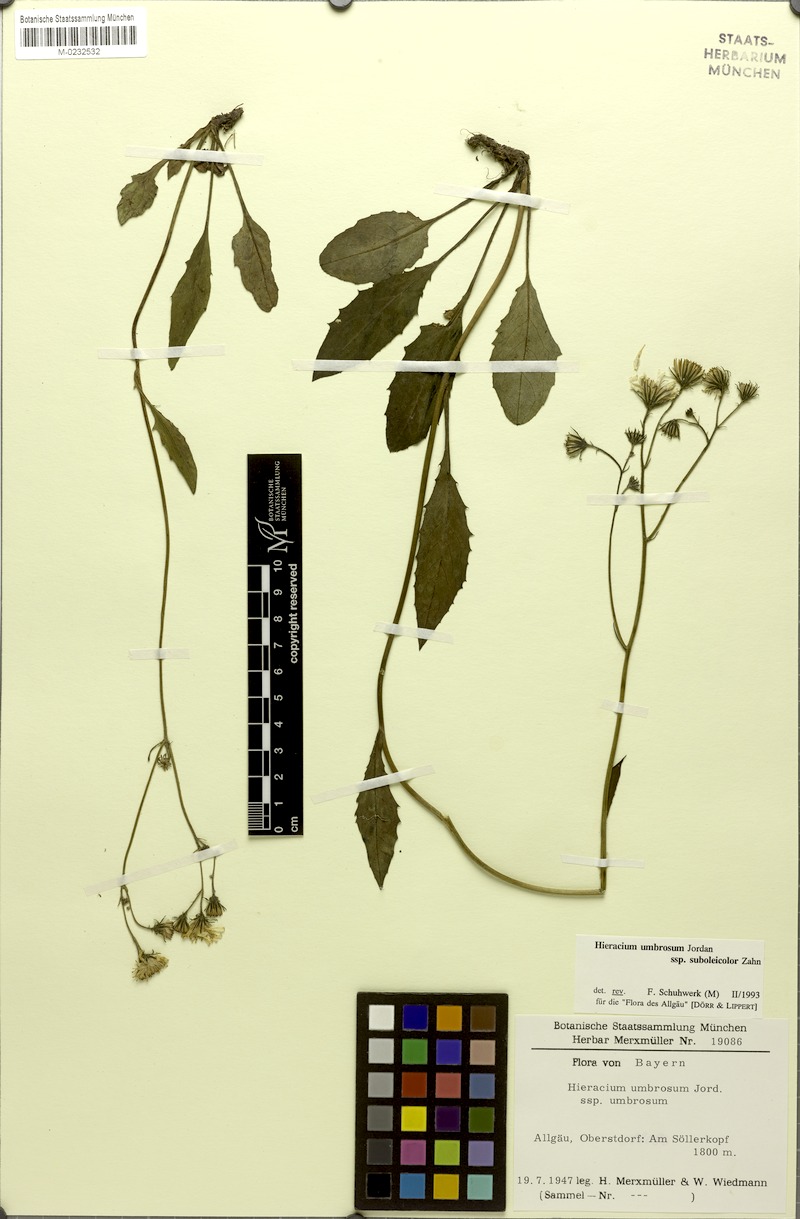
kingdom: Plantae
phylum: Tracheophyta
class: Magnoliopsida
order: Asterales
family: Asteraceae
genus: Hieracium
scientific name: Hieracium umbrosum
